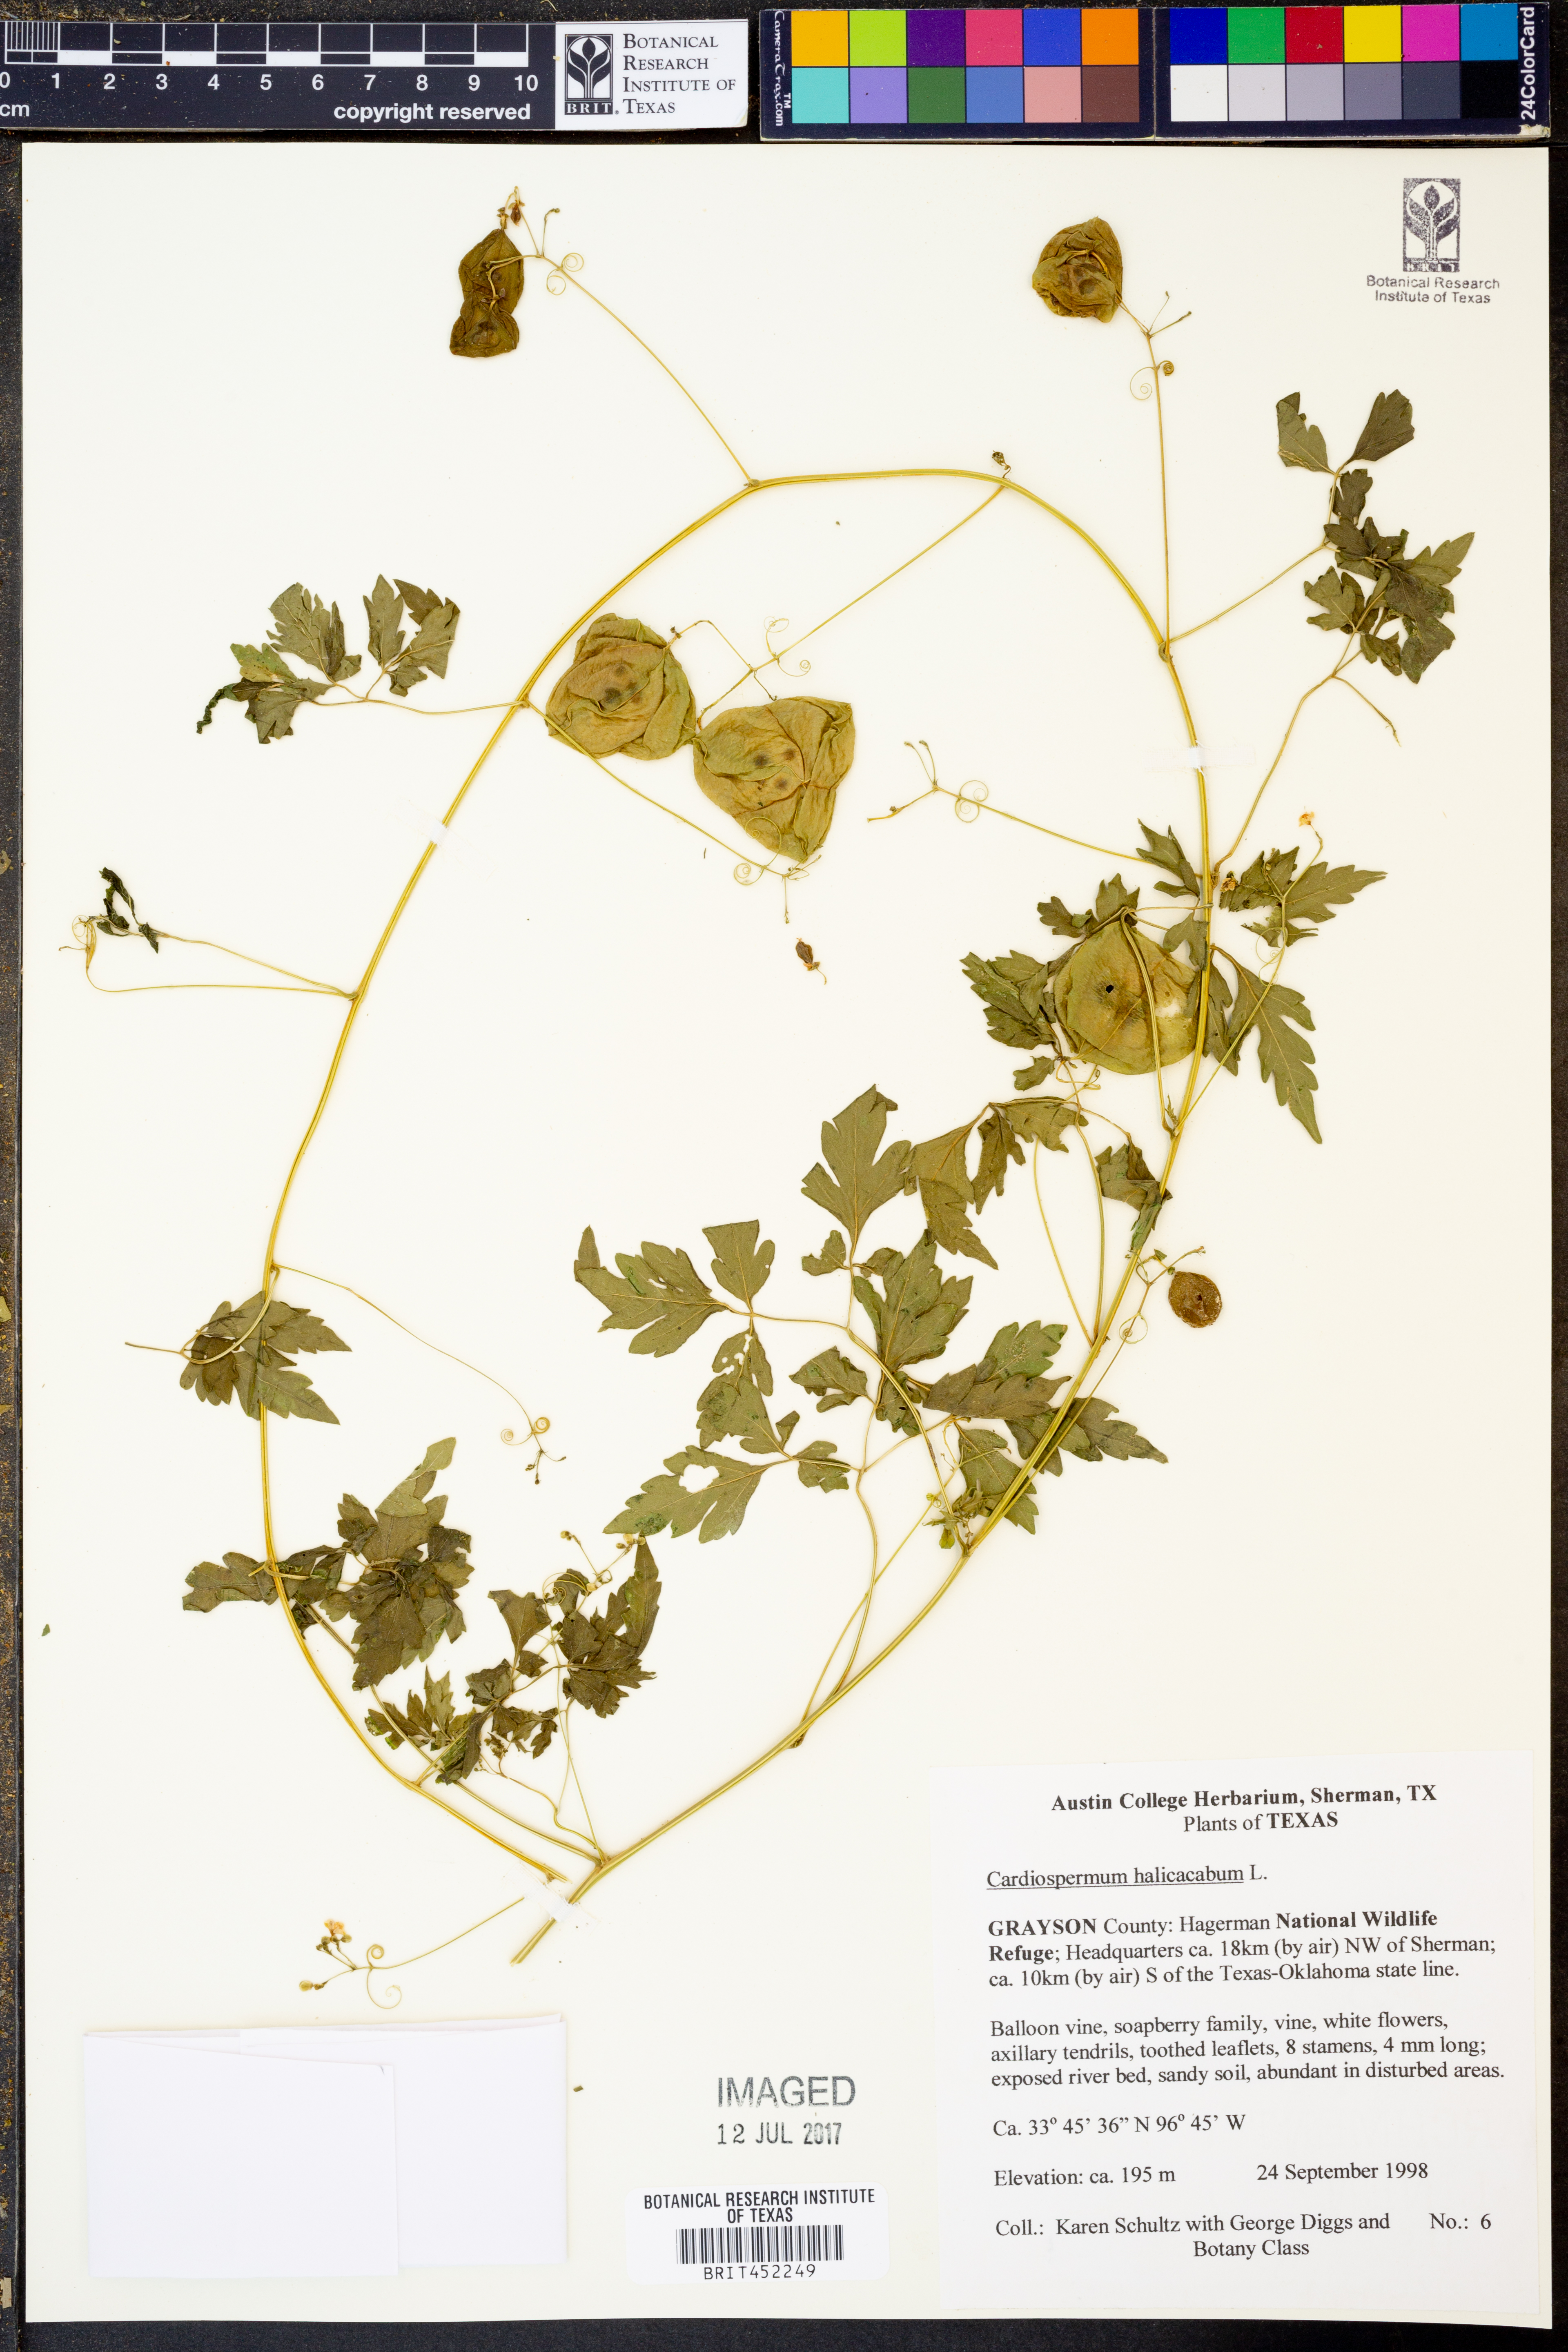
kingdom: Plantae
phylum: Tracheophyta
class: Magnoliopsida
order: Sapindales
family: Sapindaceae
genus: Cardiospermum
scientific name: Cardiospermum halicacabum
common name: Balloon vine
